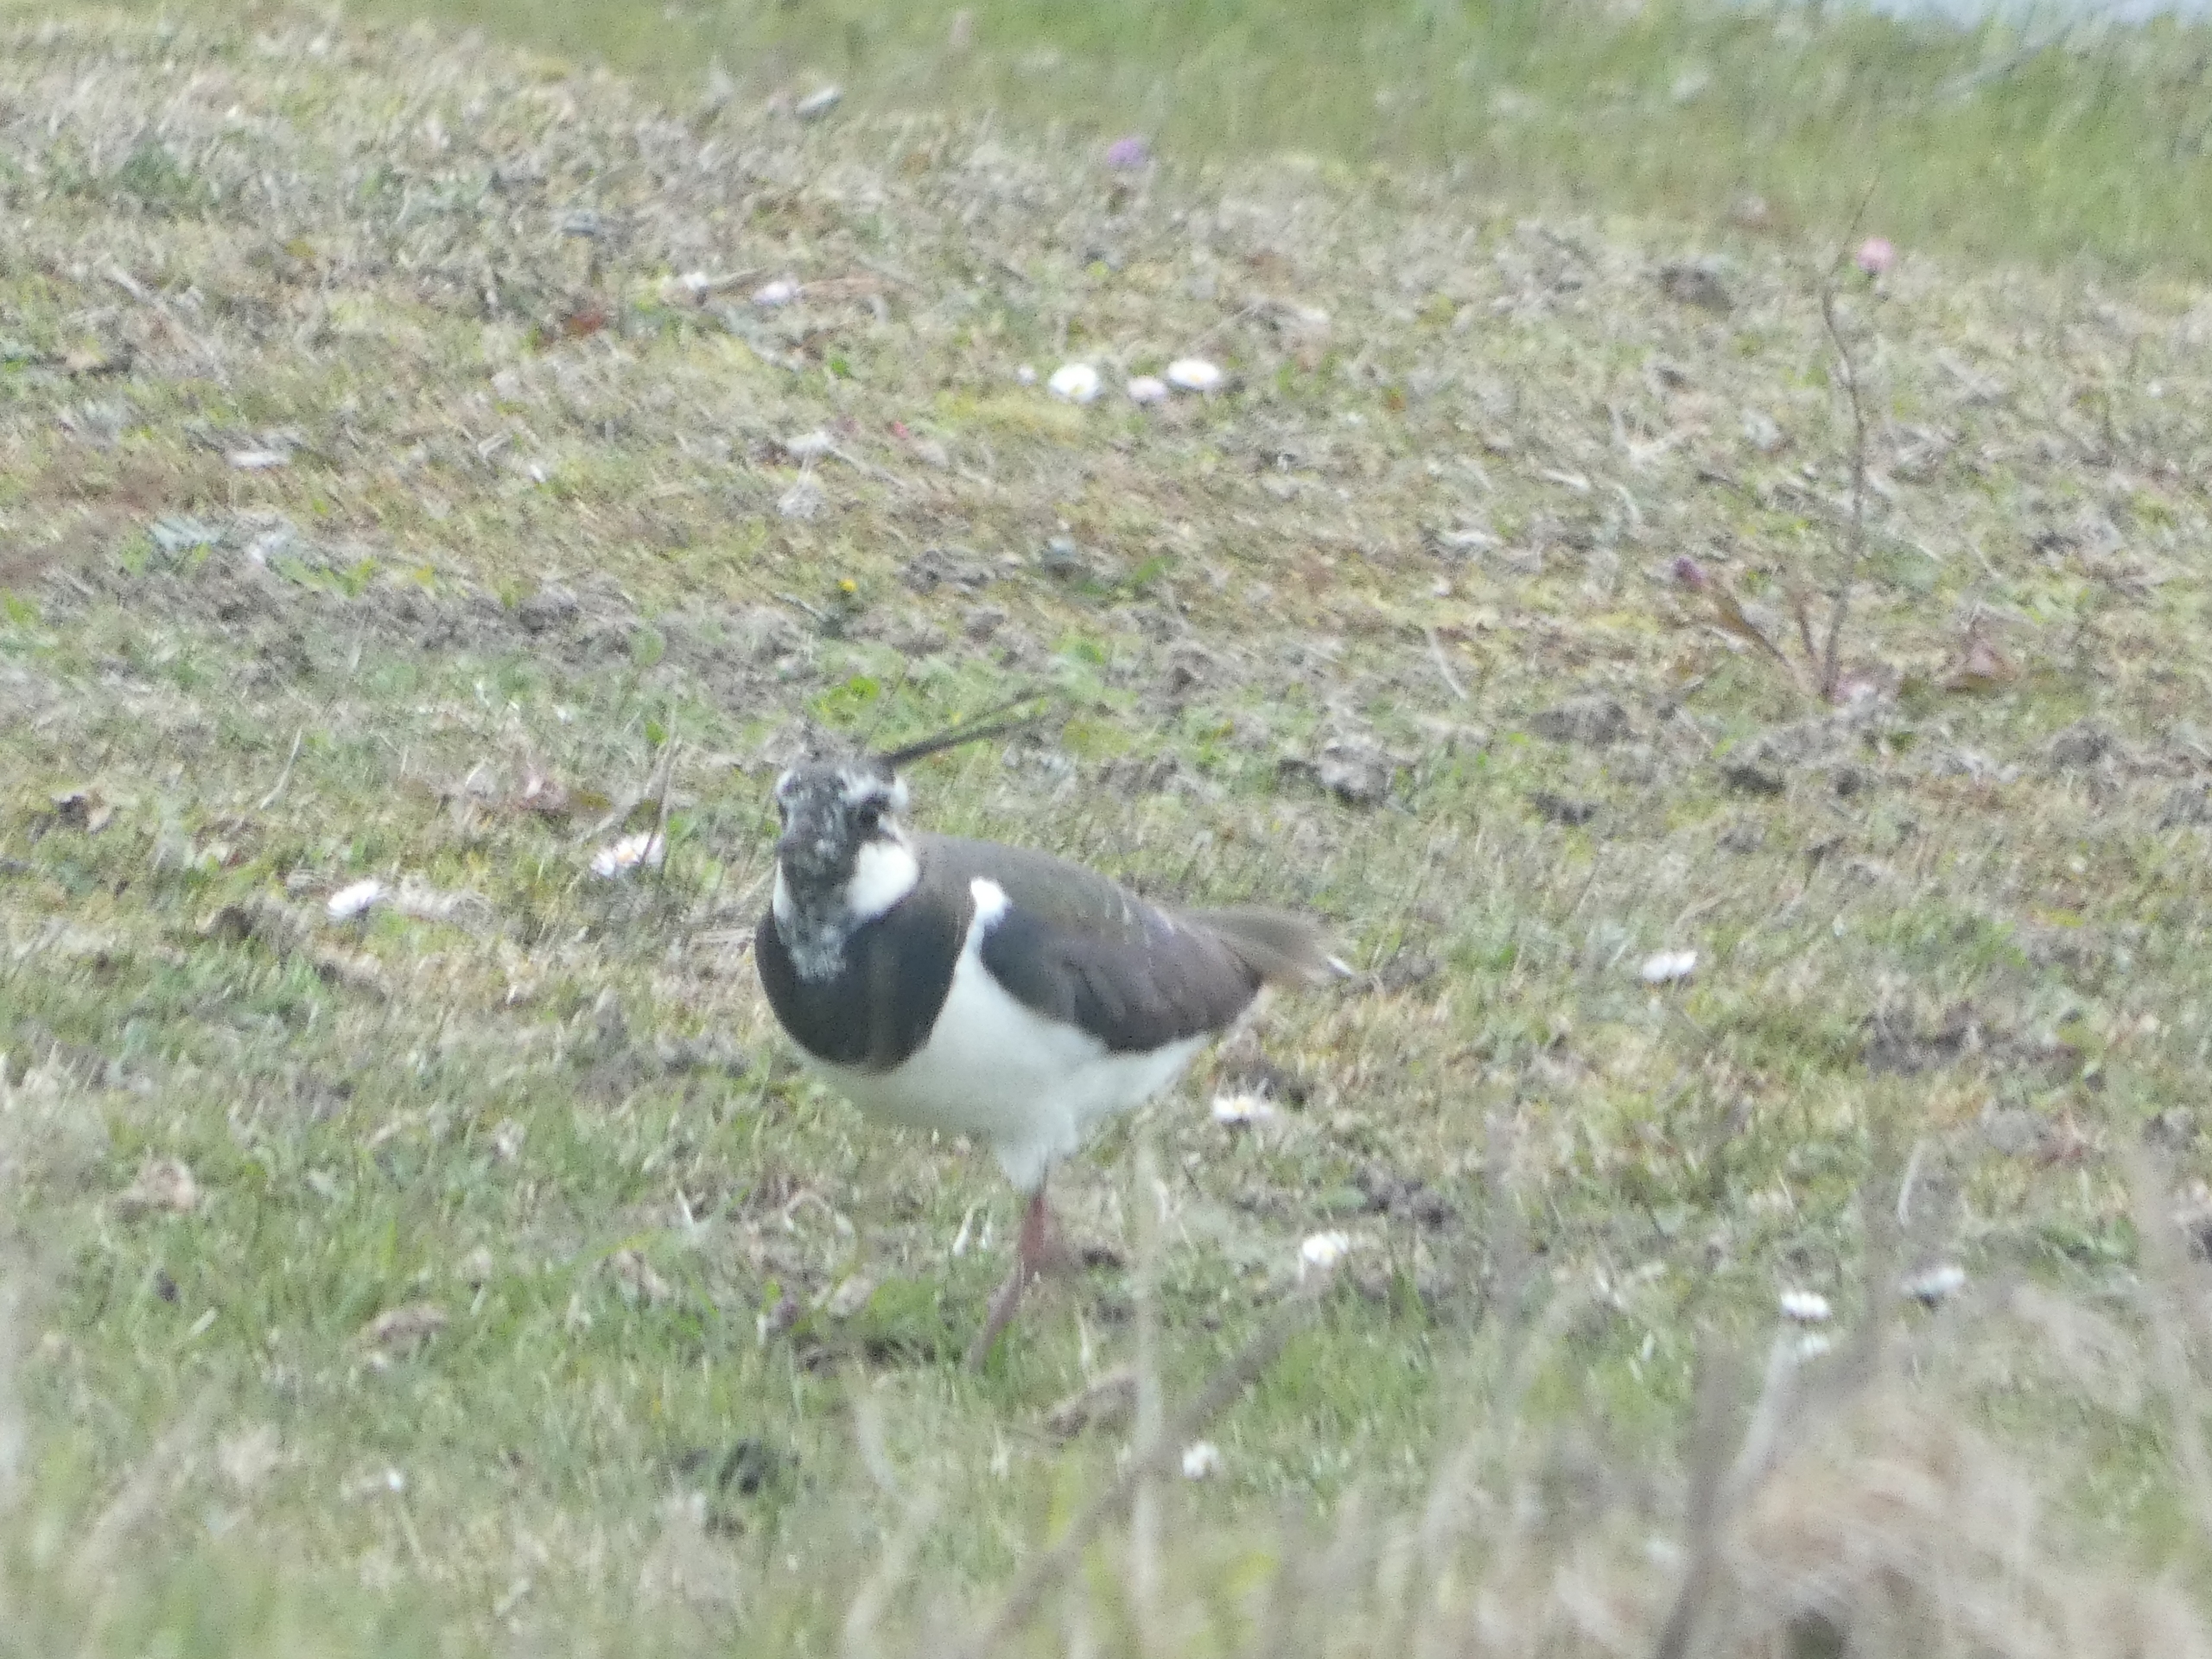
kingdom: Animalia
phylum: Chordata
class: Aves
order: Charadriiformes
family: Charadriidae
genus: Vanellus
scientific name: Vanellus vanellus
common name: Vibe
